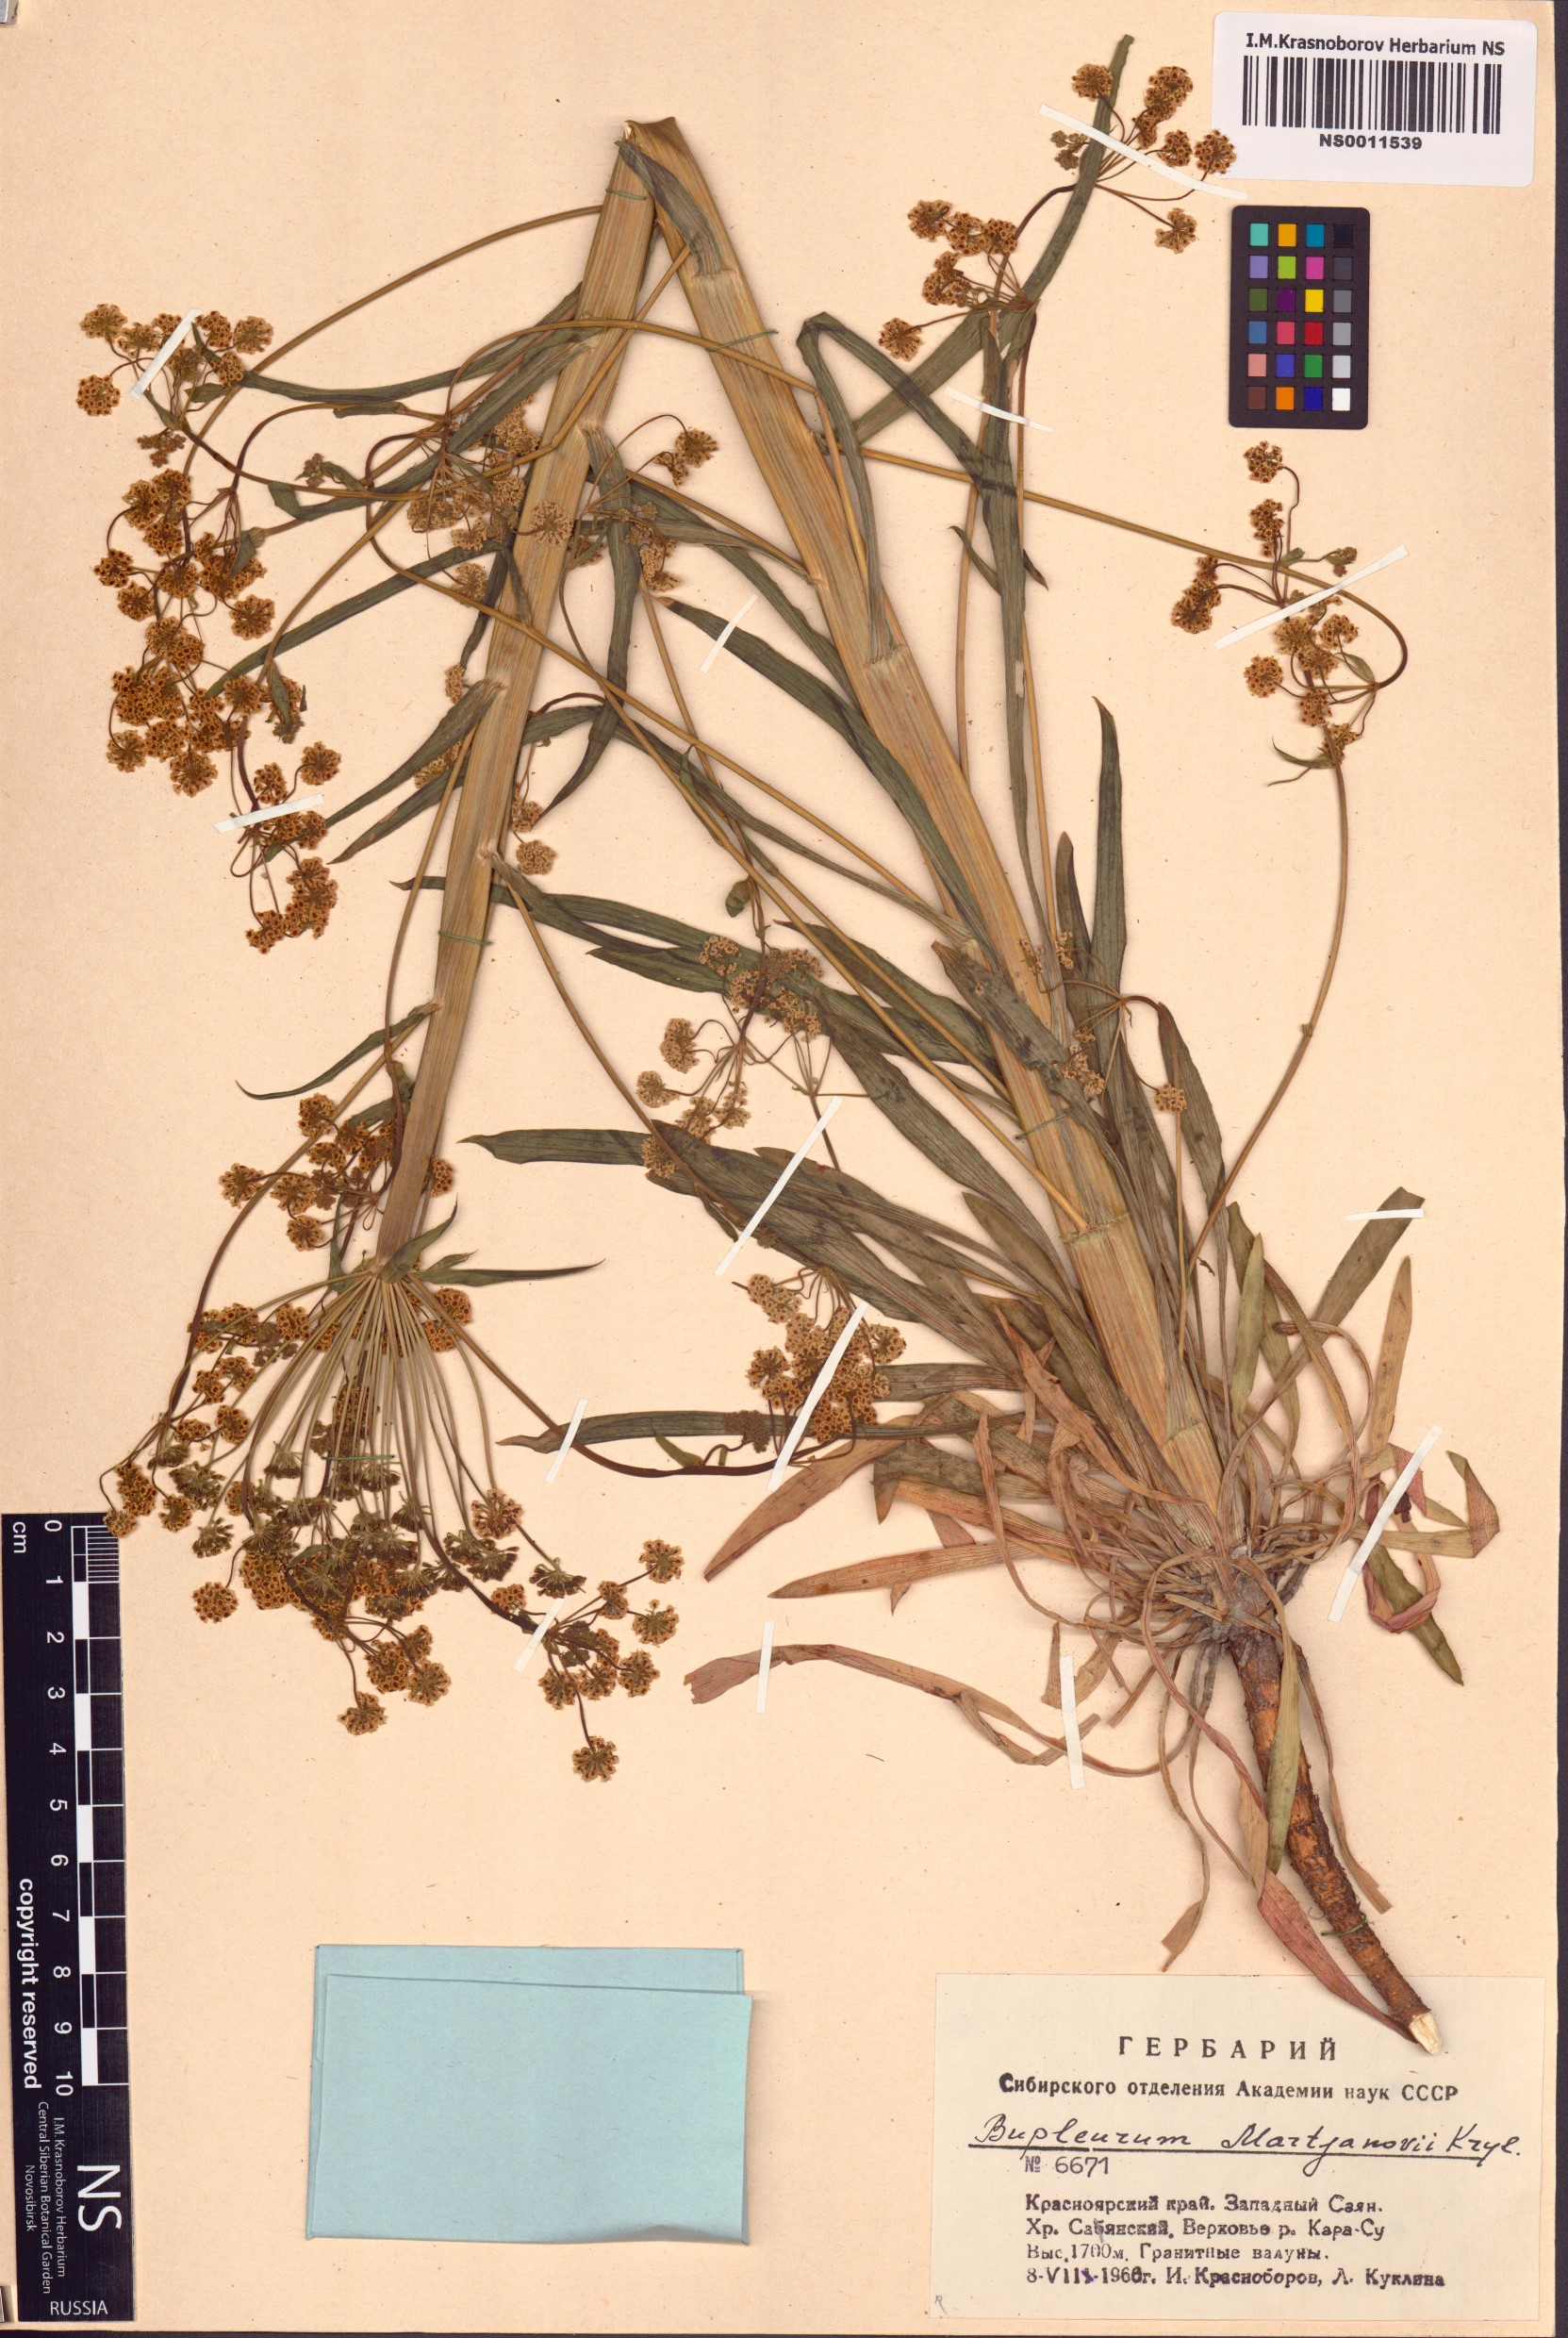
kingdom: Plantae
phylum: Tracheophyta
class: Magnoliopsida
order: Apiales
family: Apiaceae
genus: Bupleurum
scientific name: Bupleurum martjanovii
